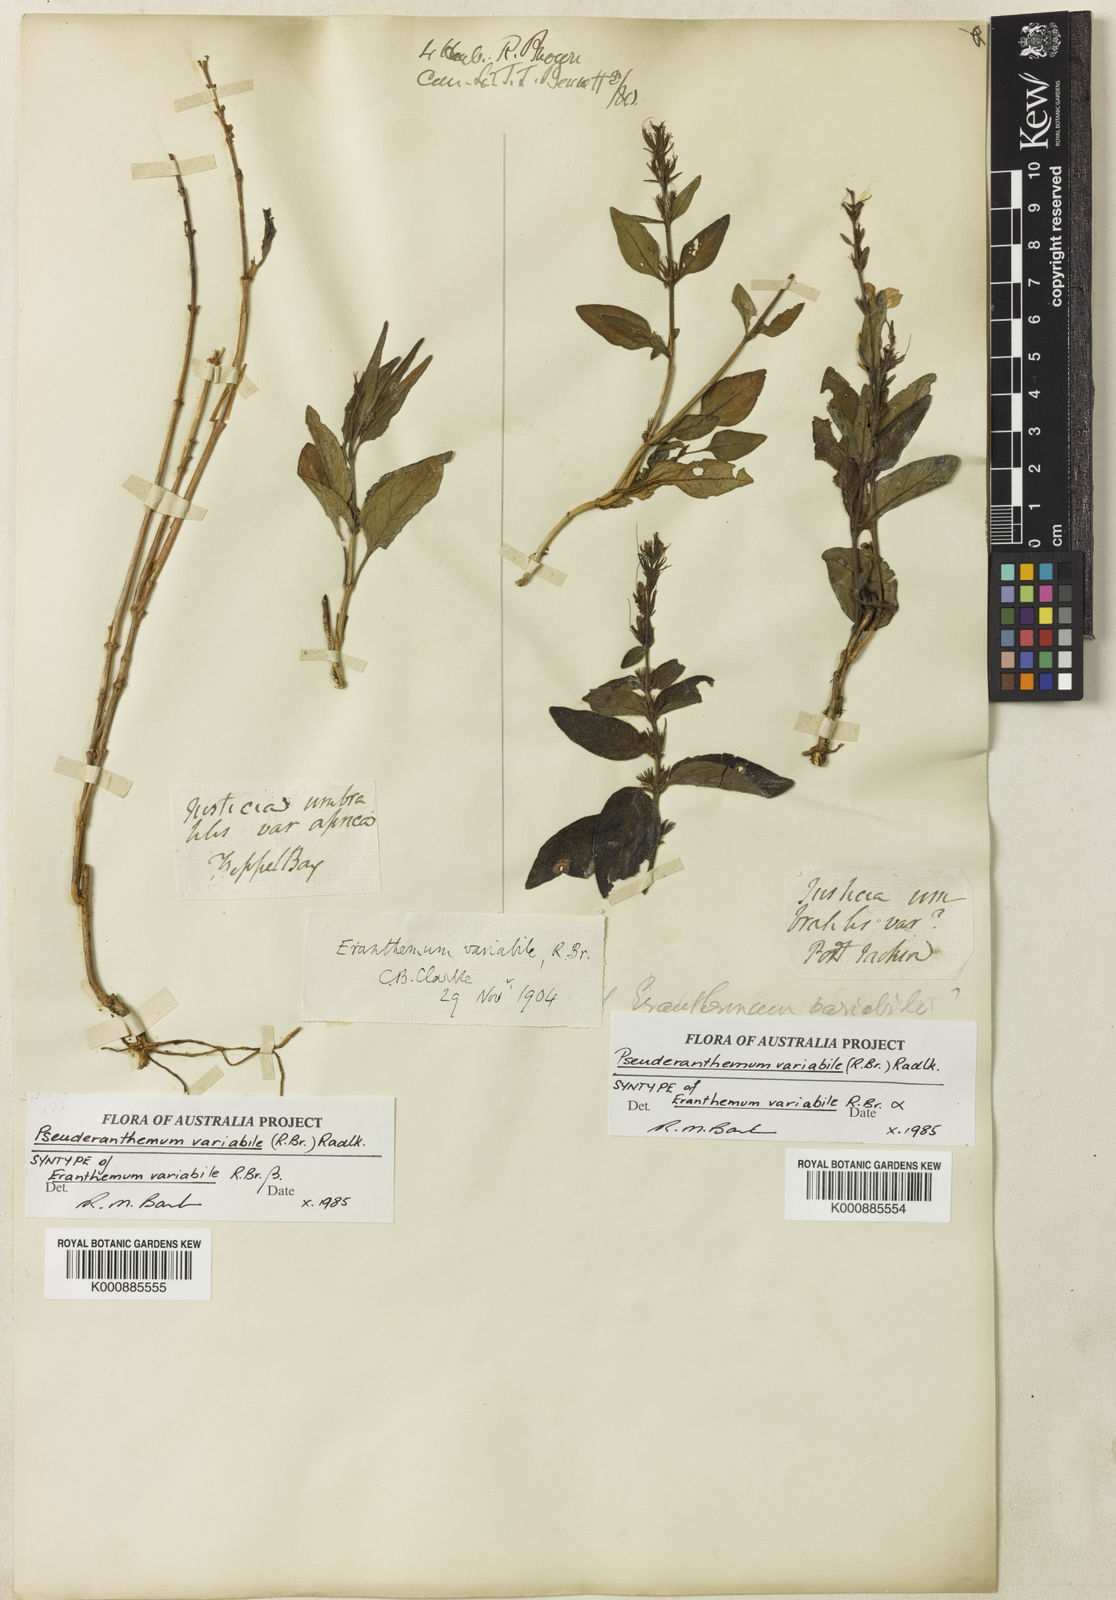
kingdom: Plantae
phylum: Tracheophyta
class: Magnoliopsida
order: Lamiales
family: Acanthaceae
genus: Pseuderanthemum
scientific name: Pseuderanthemum variabile
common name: Night and afternoon
